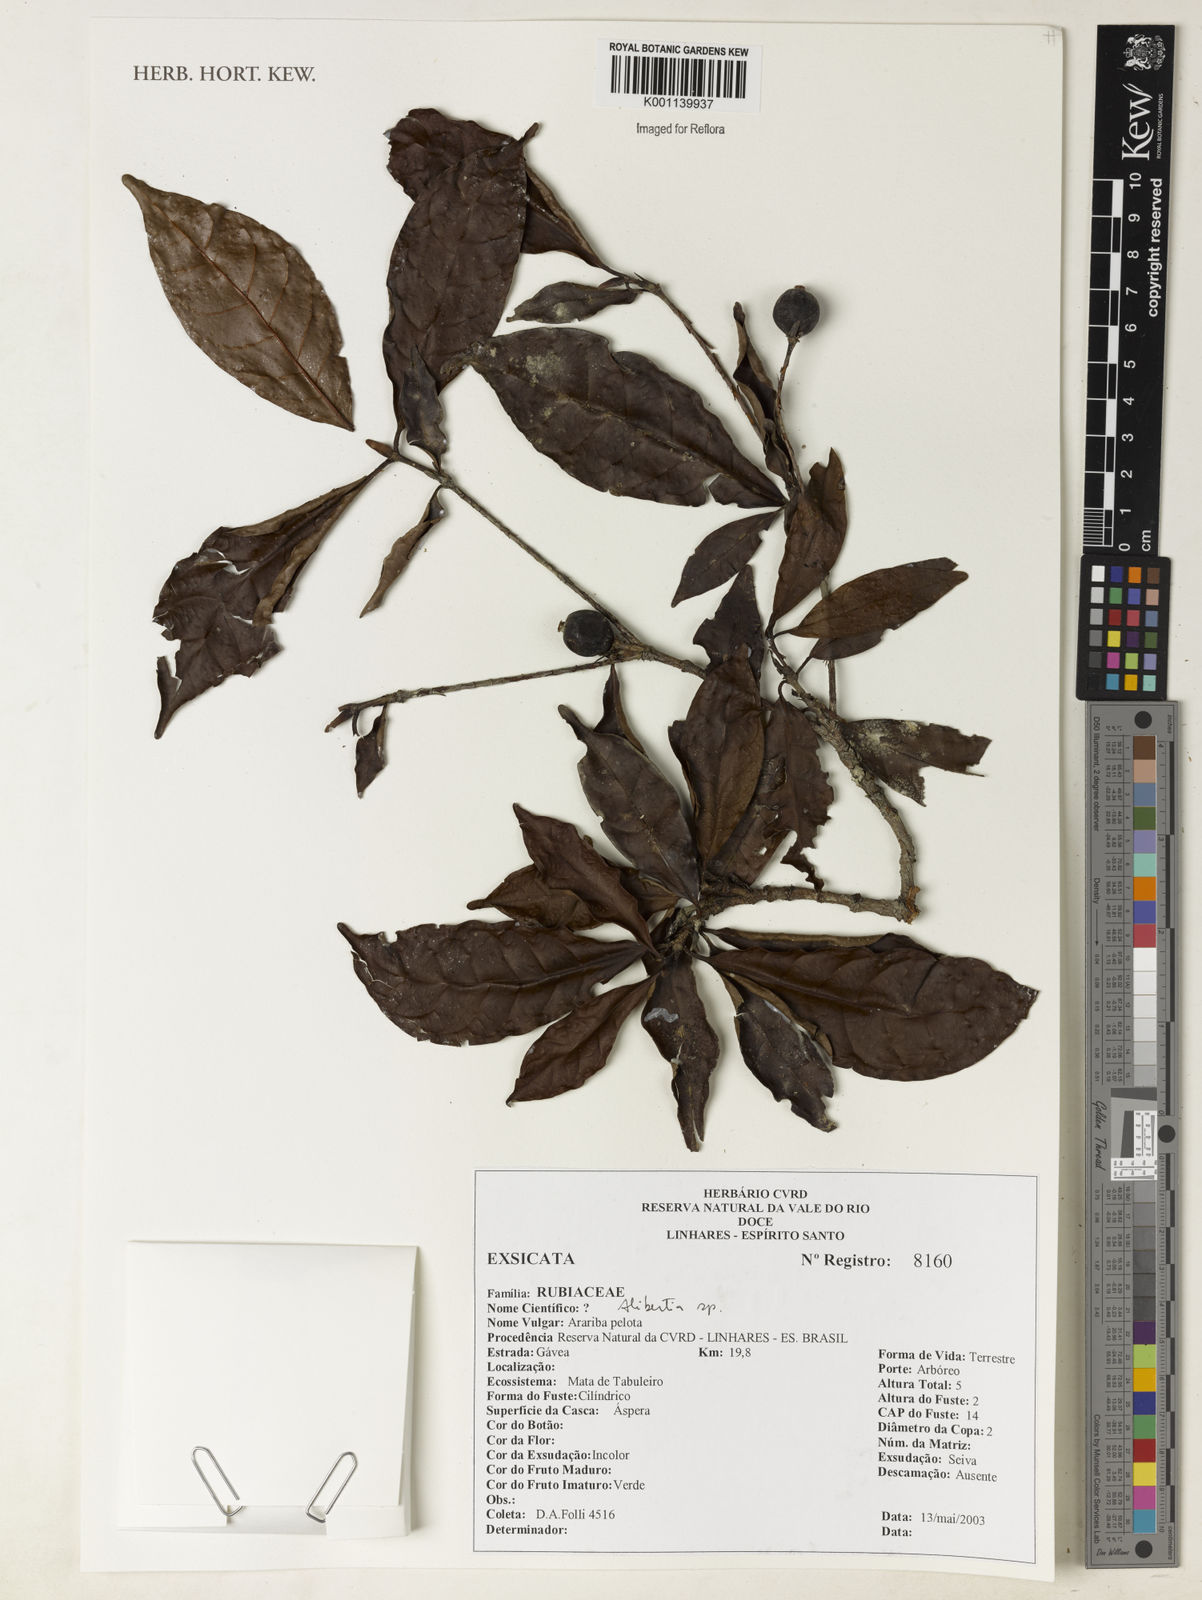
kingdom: Plantae
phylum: Tracheophyta
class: Magnoliopsida
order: Gentianales
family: Rubiaceae
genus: Alibertia
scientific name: Alibertia
